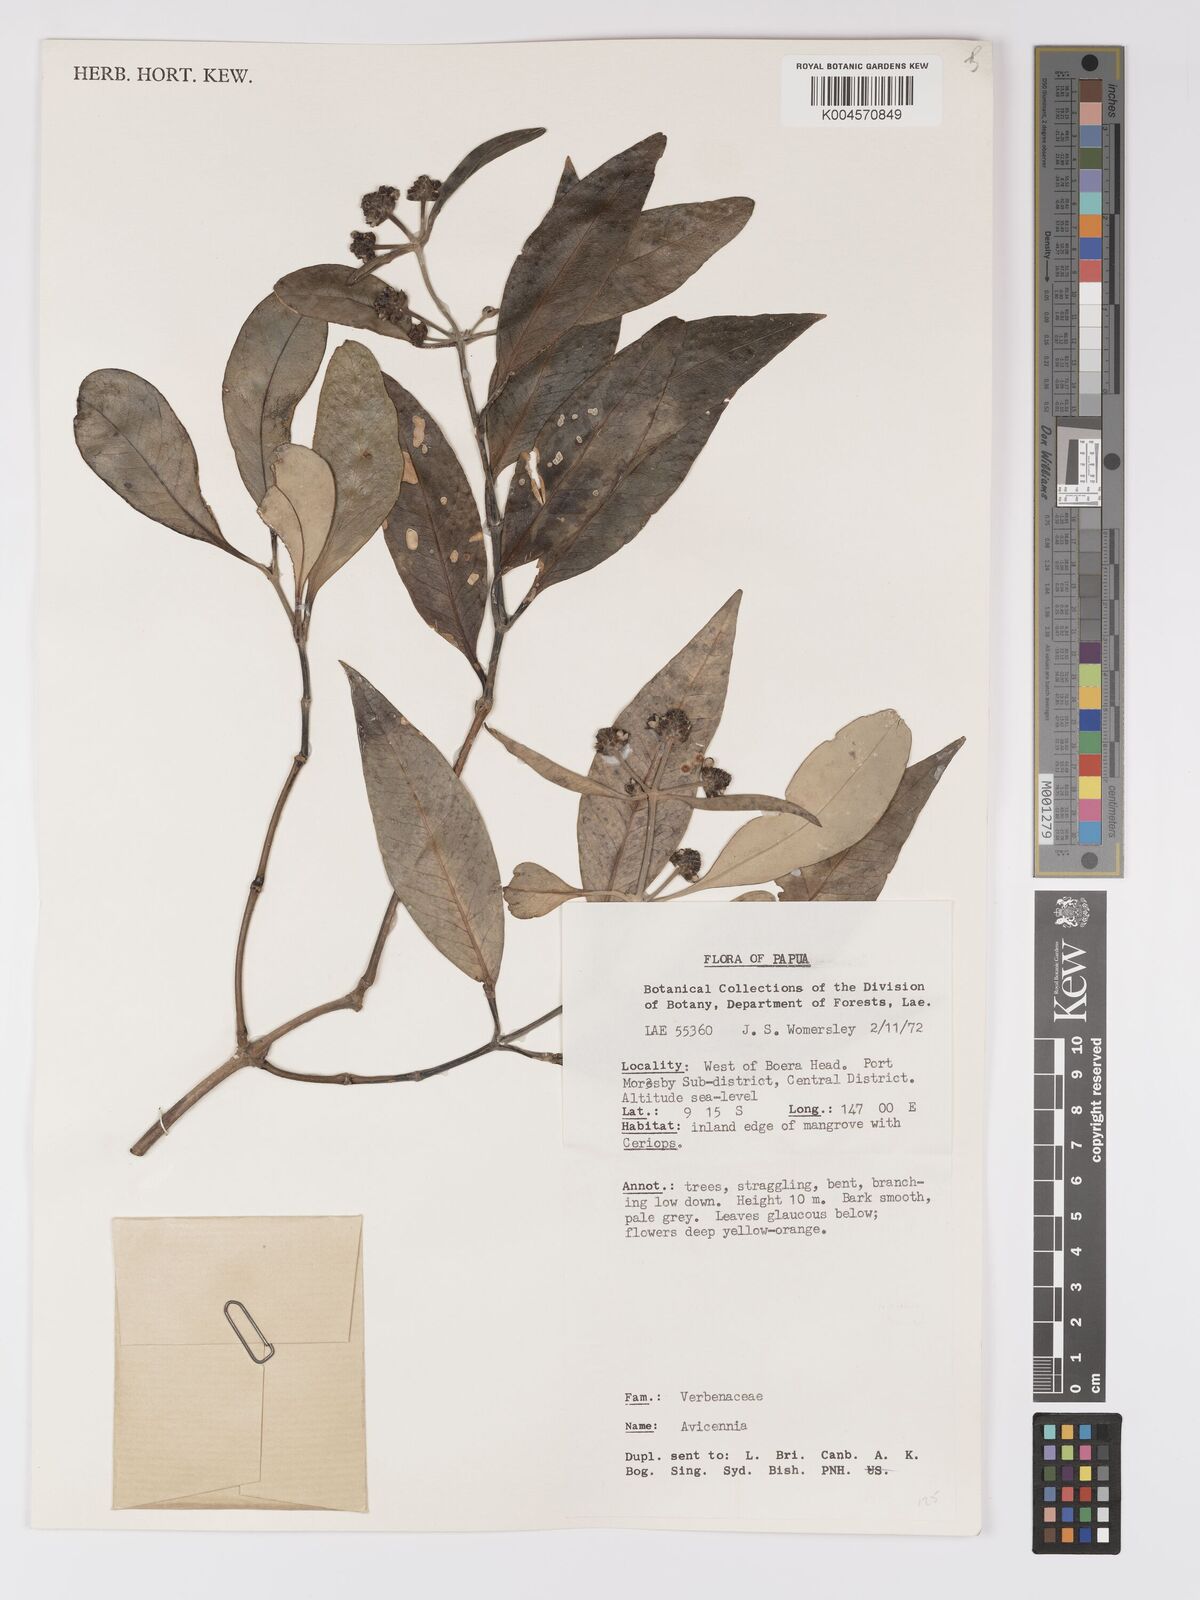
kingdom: Plantae
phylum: Tracheophyta
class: Magnoliopsida
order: Lamiales
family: Acanthaceae
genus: Avicennia
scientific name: Avicennia marina
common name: Gray mangrove
